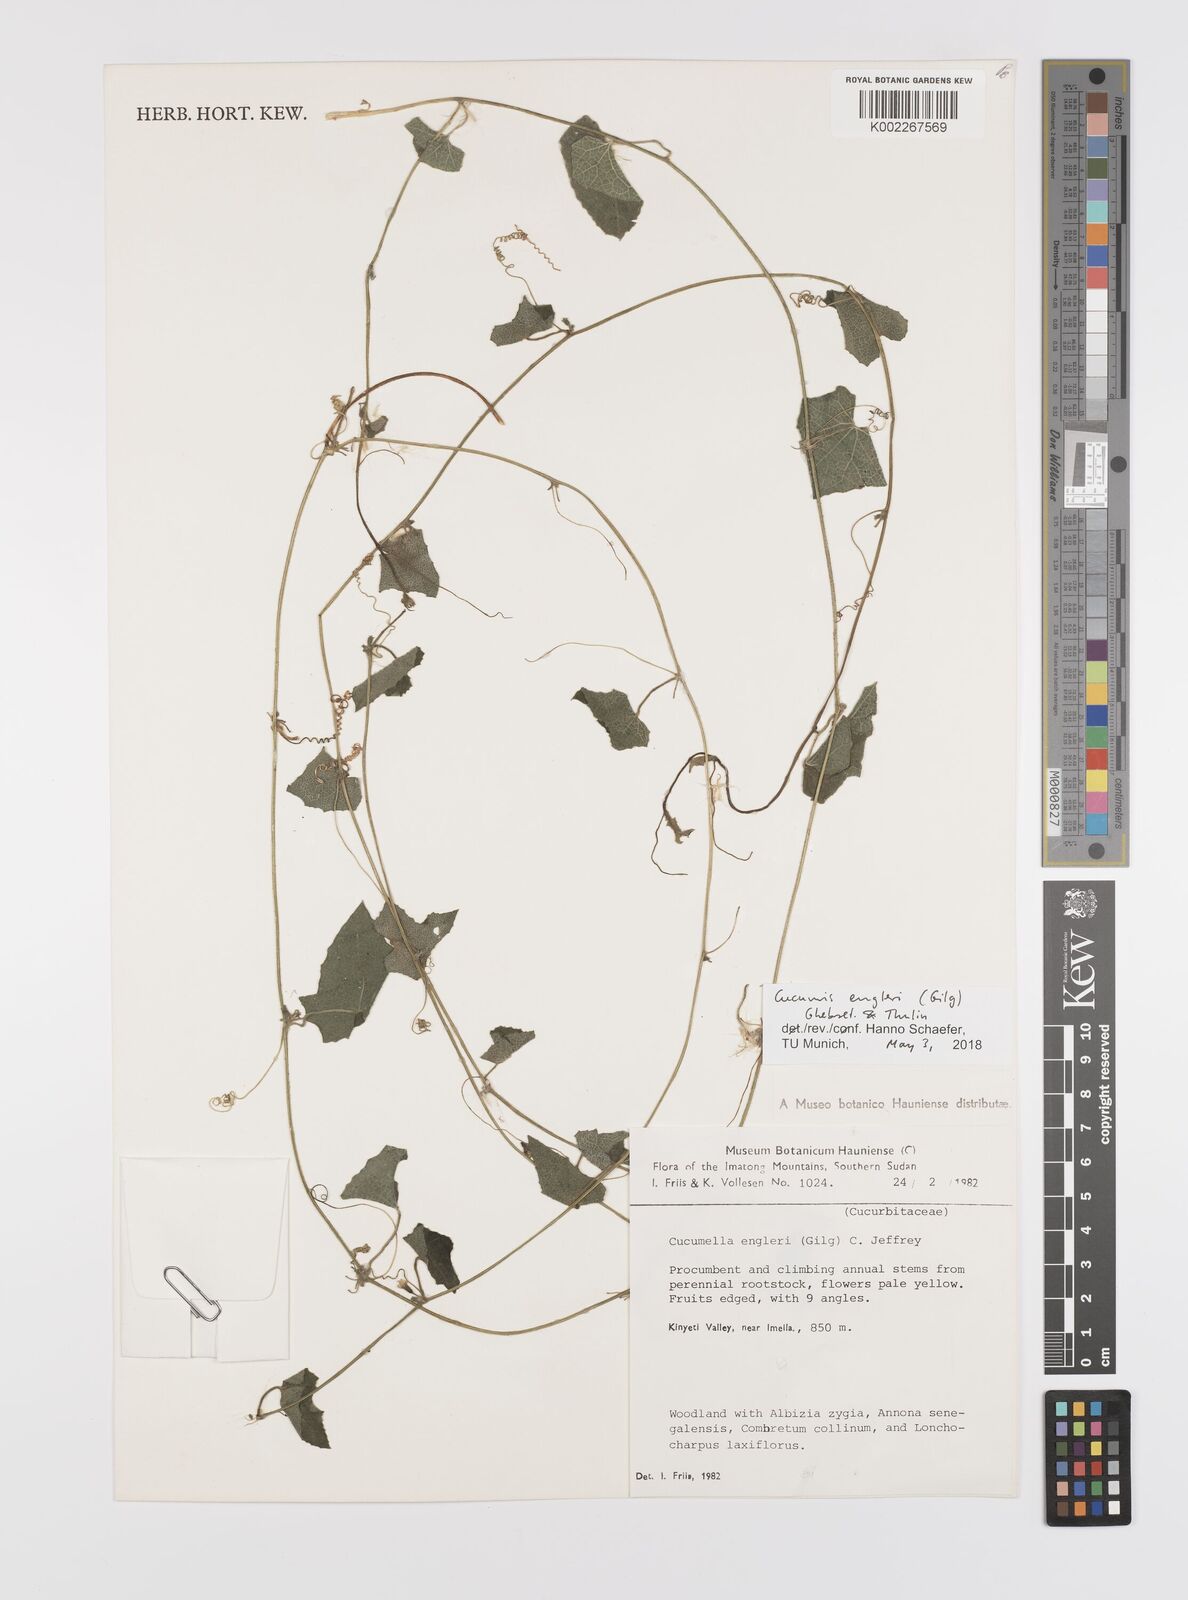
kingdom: Plantae
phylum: Tracheophyta
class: Magnoliopsida
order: Cucurbitales
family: Cucurbitaceae
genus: Cucumis
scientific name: Cucumis engleri
